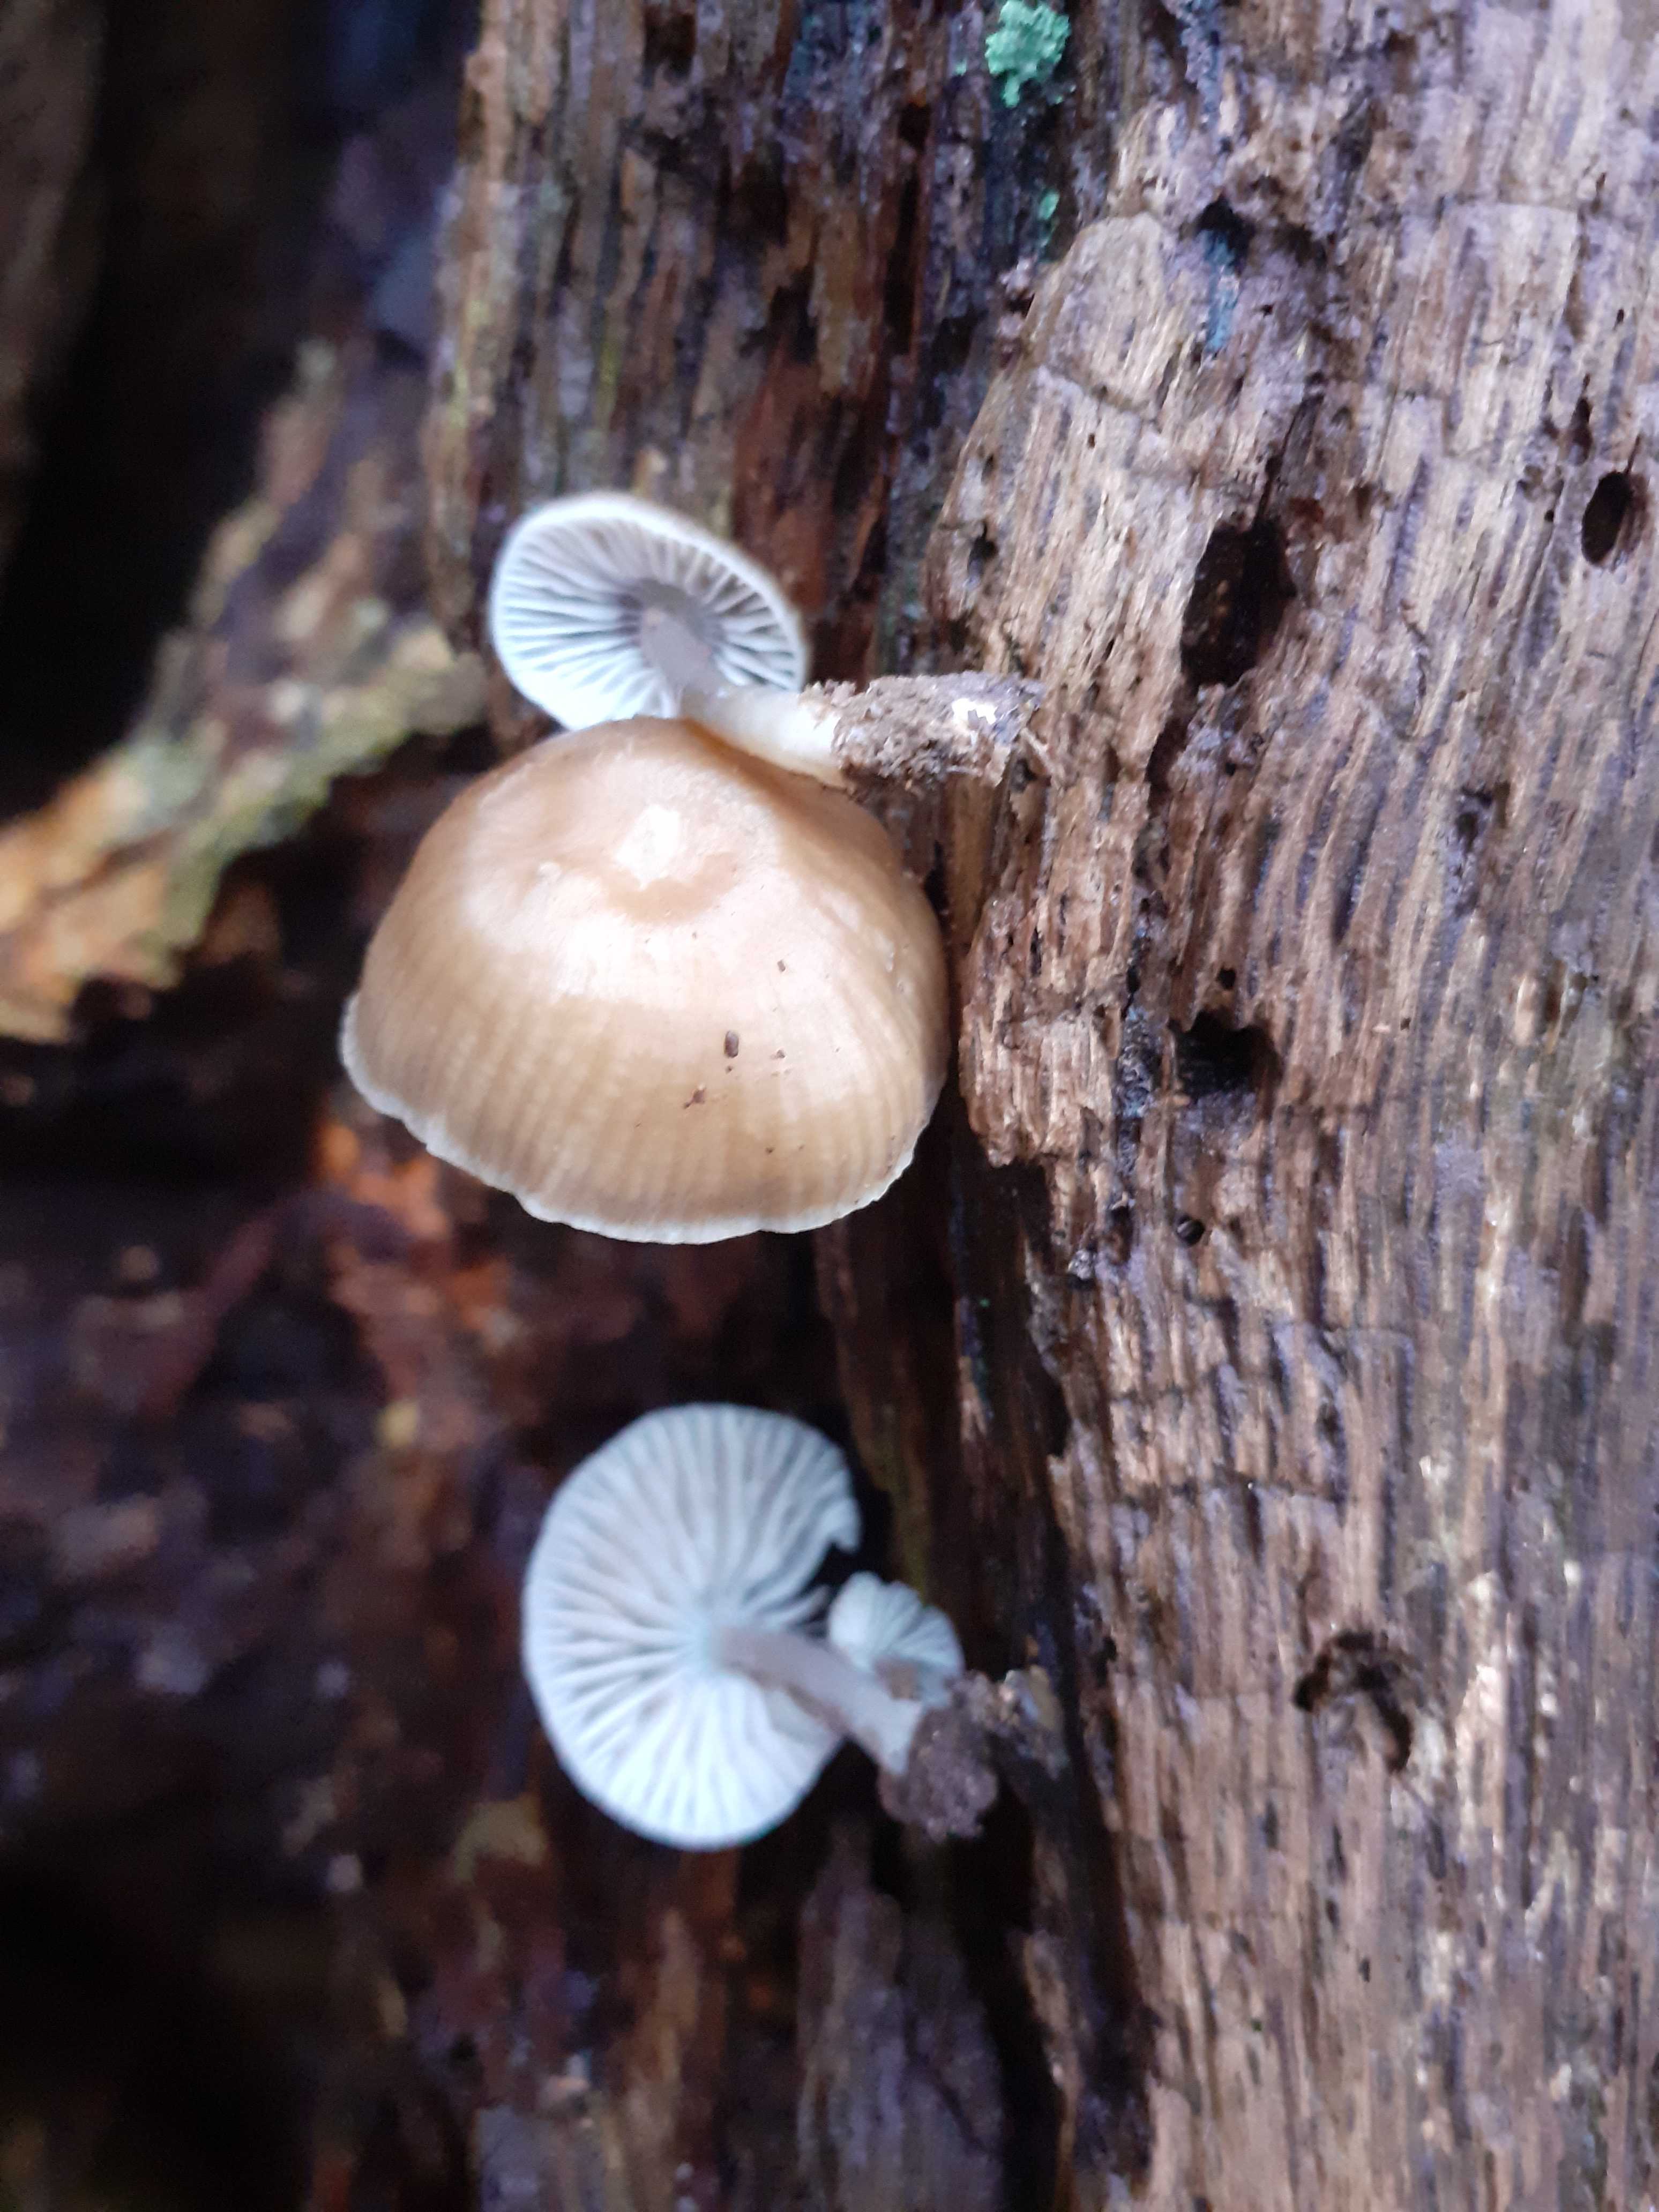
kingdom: Fungi
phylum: Basidiomycota
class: Agaricomycetes
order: Agaricales
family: Mycenaceae
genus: Mycena
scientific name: Mycena galericulata
